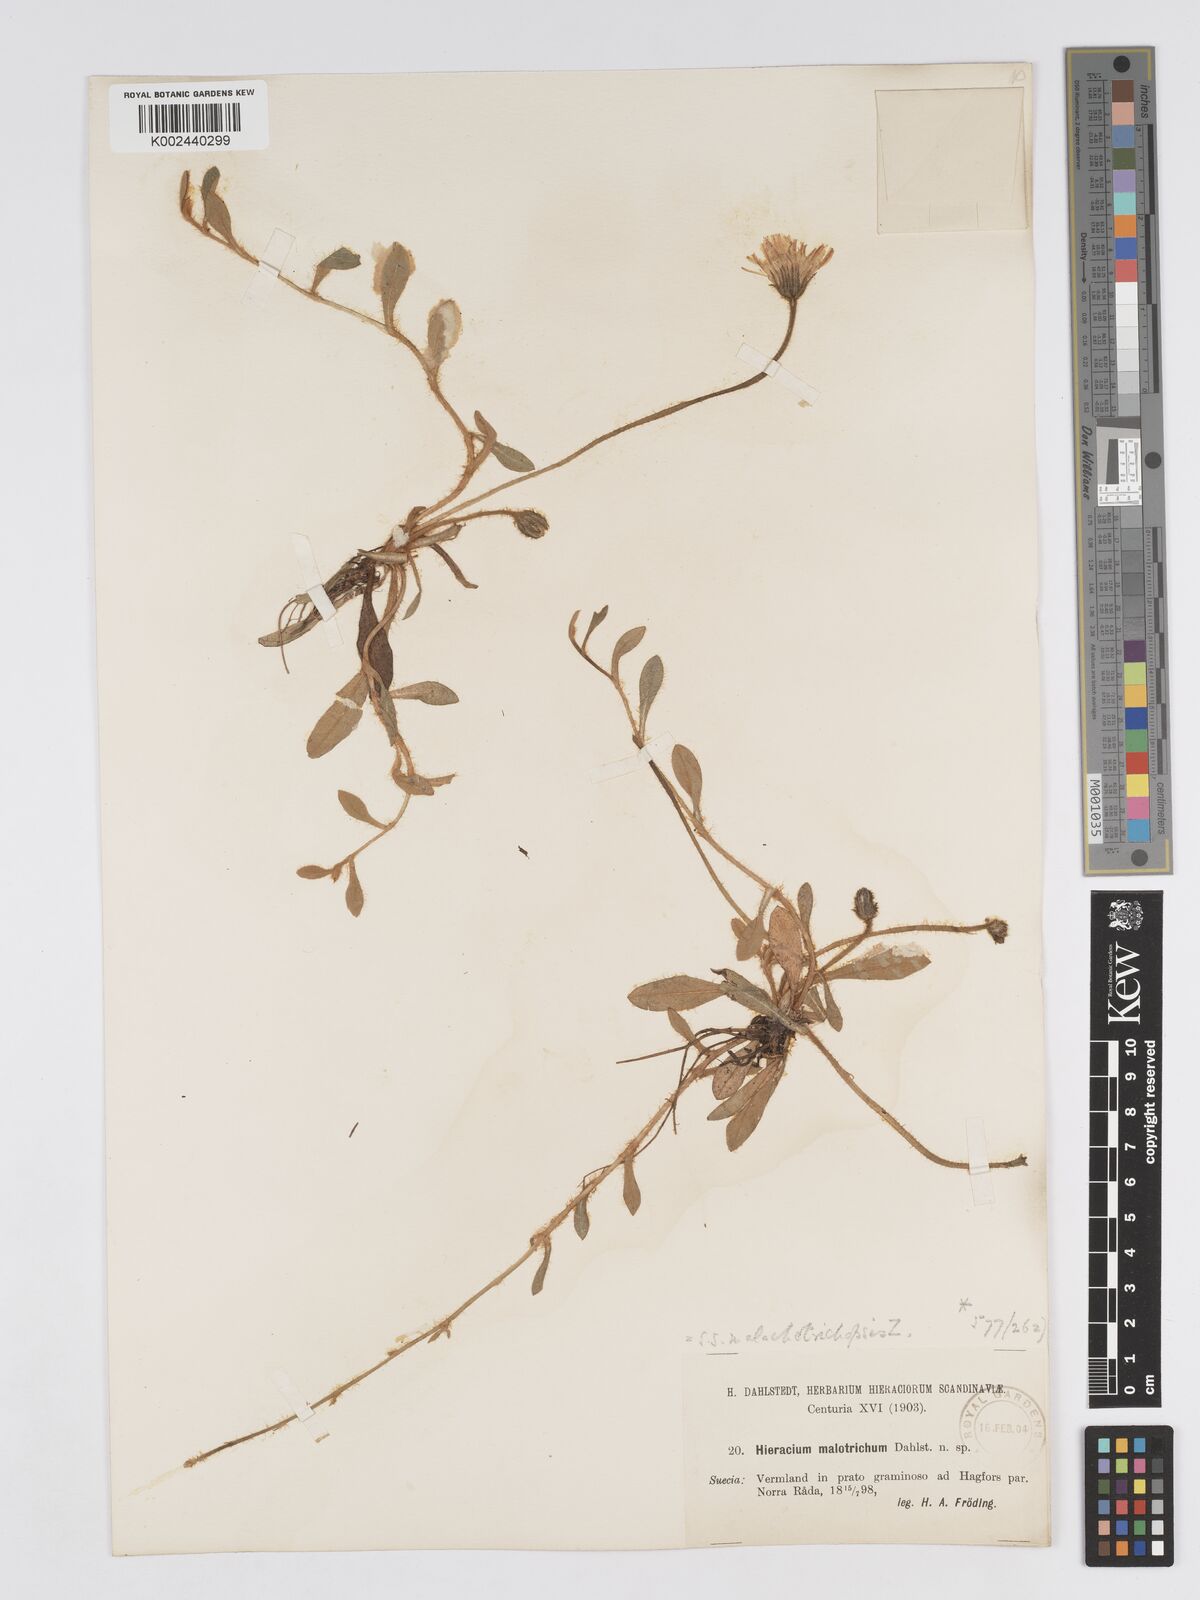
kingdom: Plantae
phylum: Tracheophyta
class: Magnoliopsida
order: Asterales
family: Asteraceae
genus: Pilosella
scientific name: Pilosella officinarum
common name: Mouse-ear hawkweed
